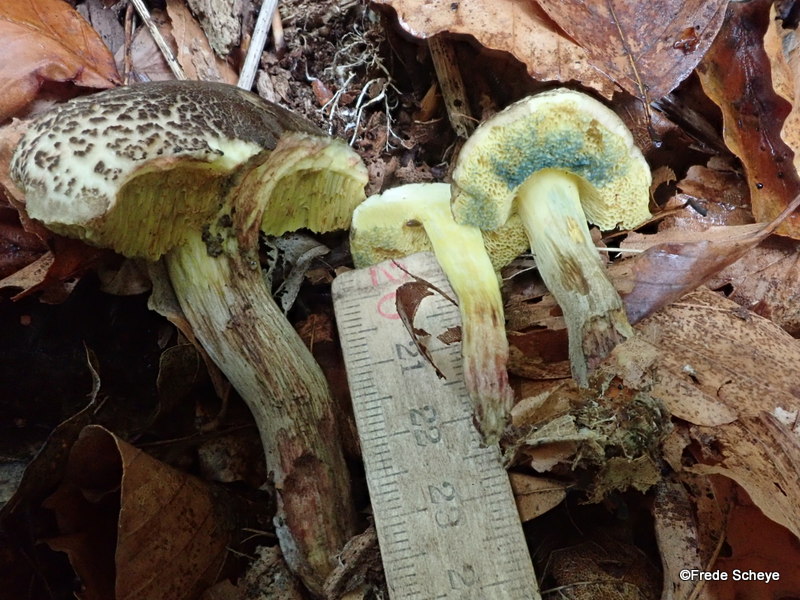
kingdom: Fungi
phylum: Basidiomycota
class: Agaricomycetes
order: Boletales
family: Boletaceae
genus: Xerocomellus
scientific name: Xerocomellus chrysenteron
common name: rødsprukken rørhat
